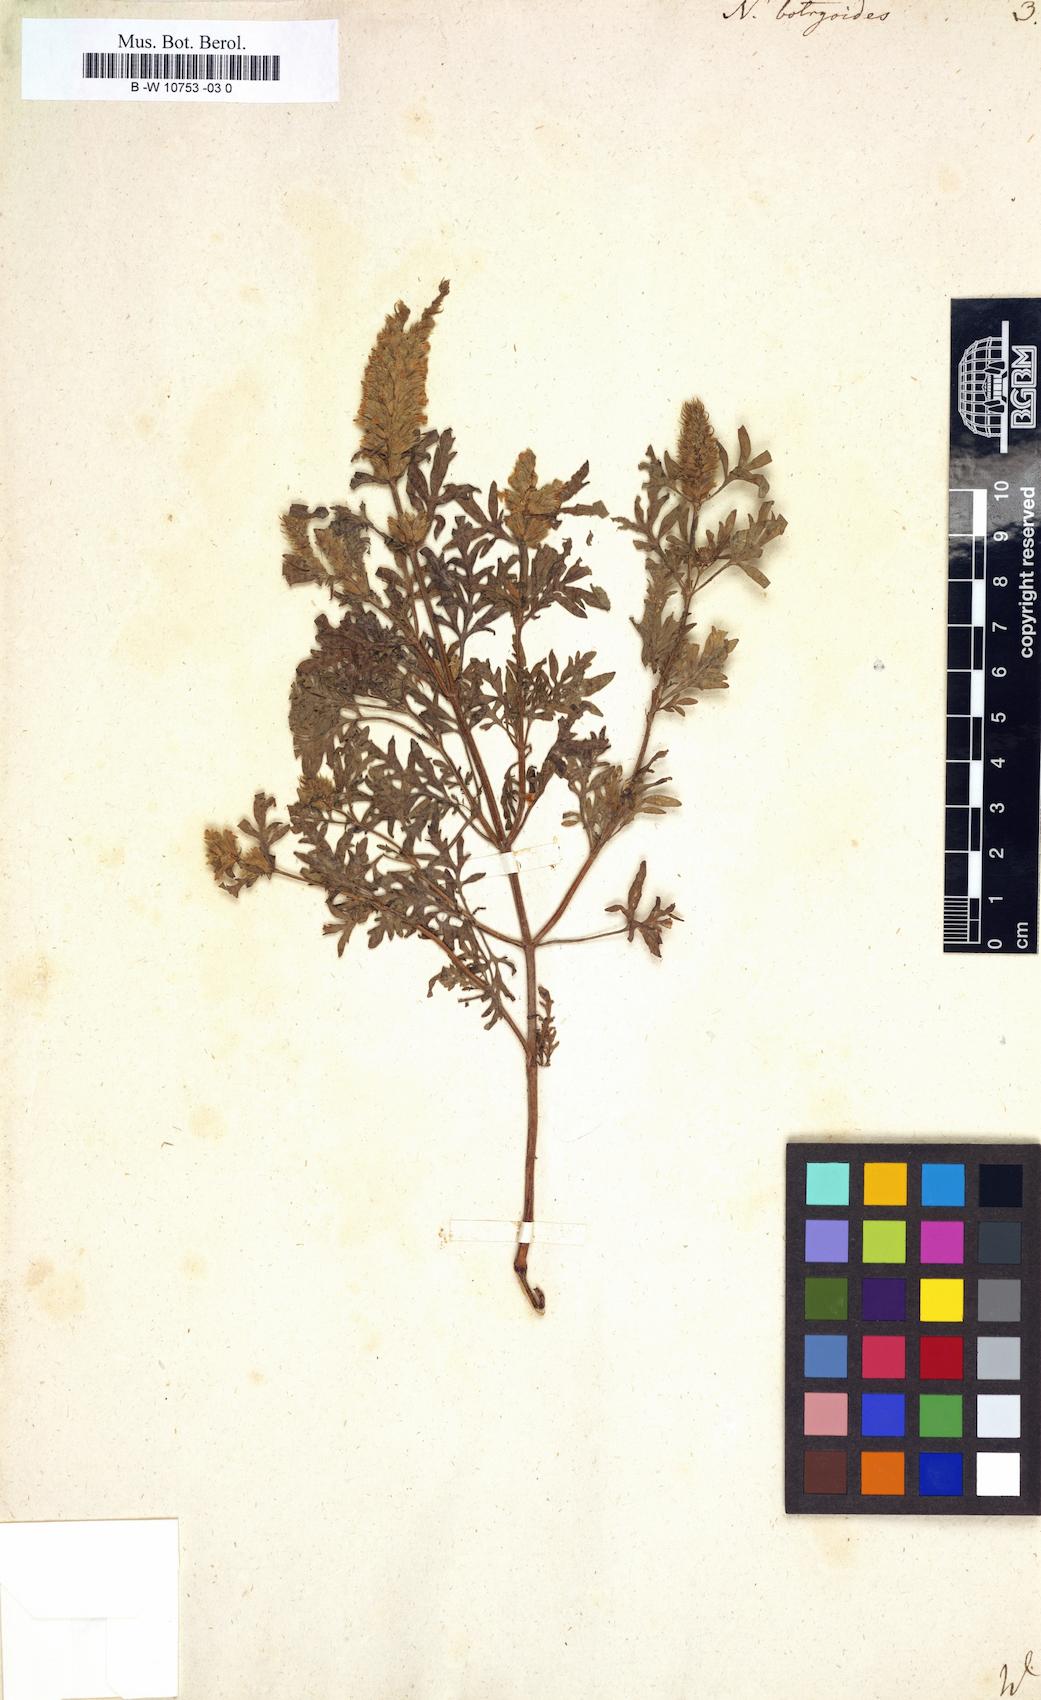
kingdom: Plantae
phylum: Tracheophyta
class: Magnoliopsida
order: Lamiales
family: Lamiaceae
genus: Nepeta
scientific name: Nepeta annua
